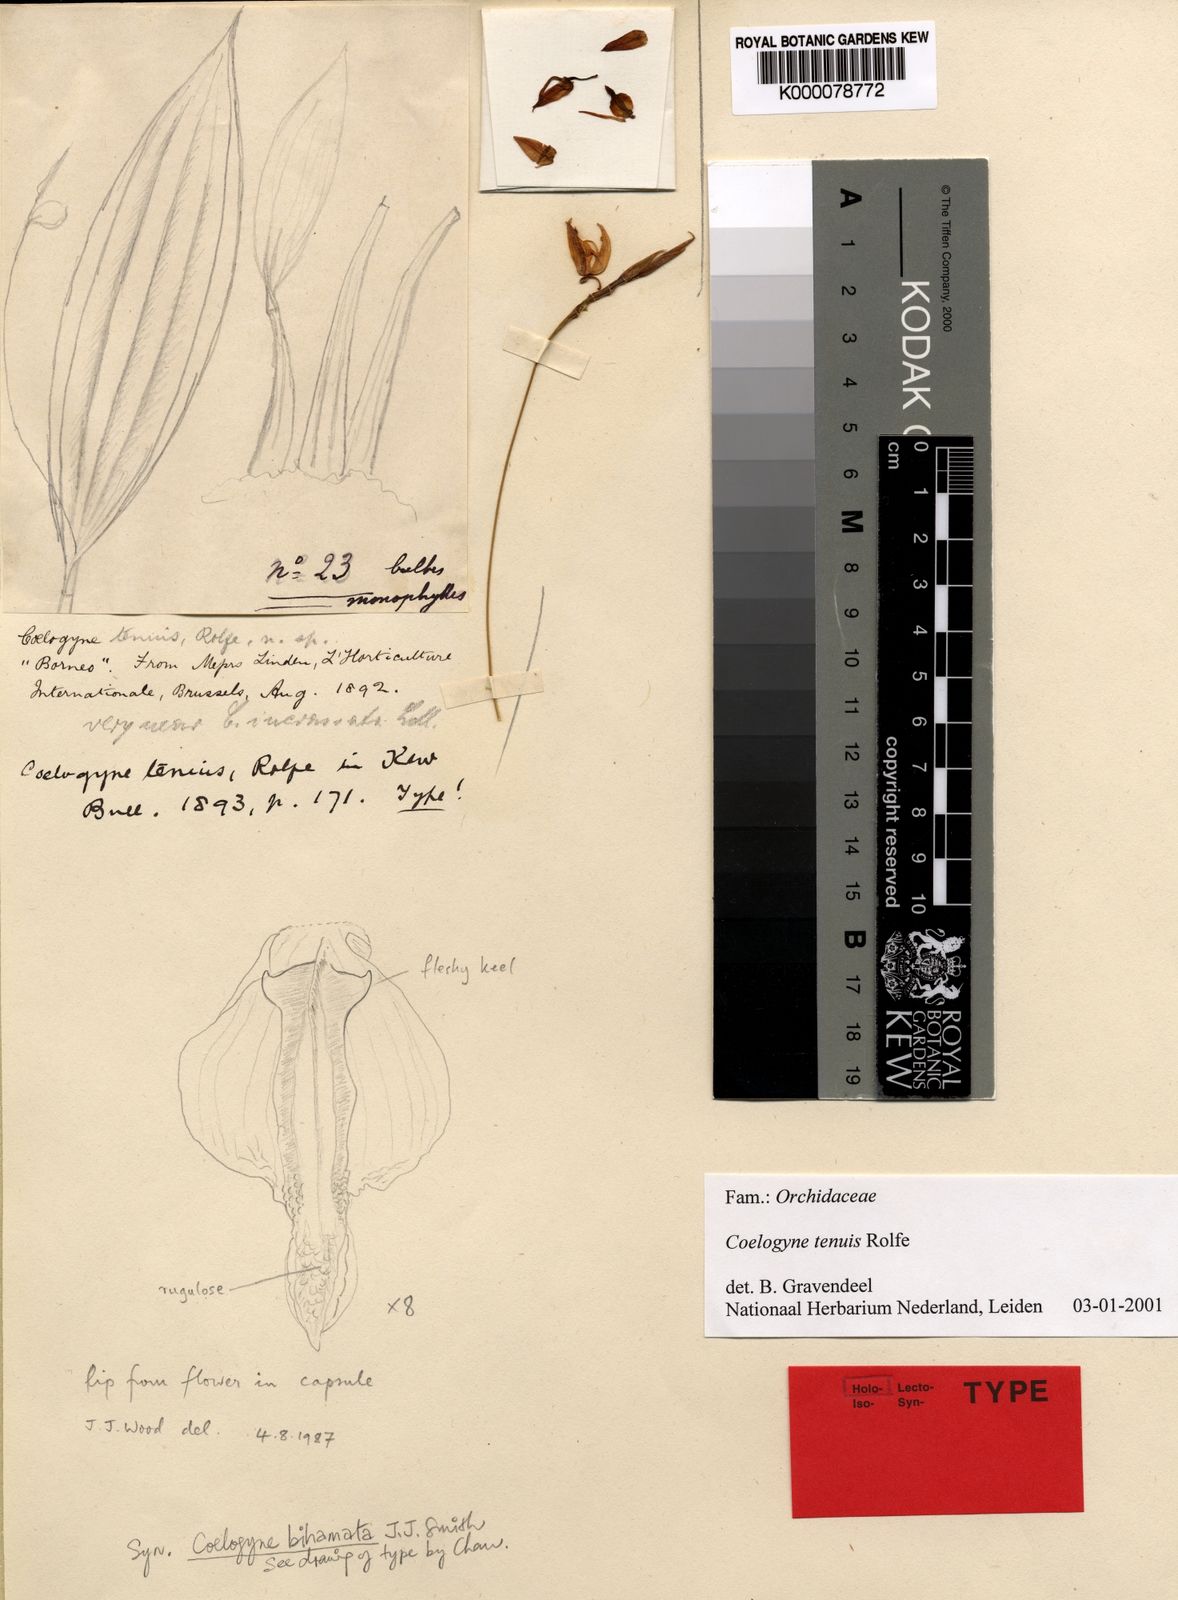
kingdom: Plantae
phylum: Tracheophyta
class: Liliopsida
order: Asparagales
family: Orchidaceae
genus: Coelogyne
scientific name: Coelogyne tenuis
